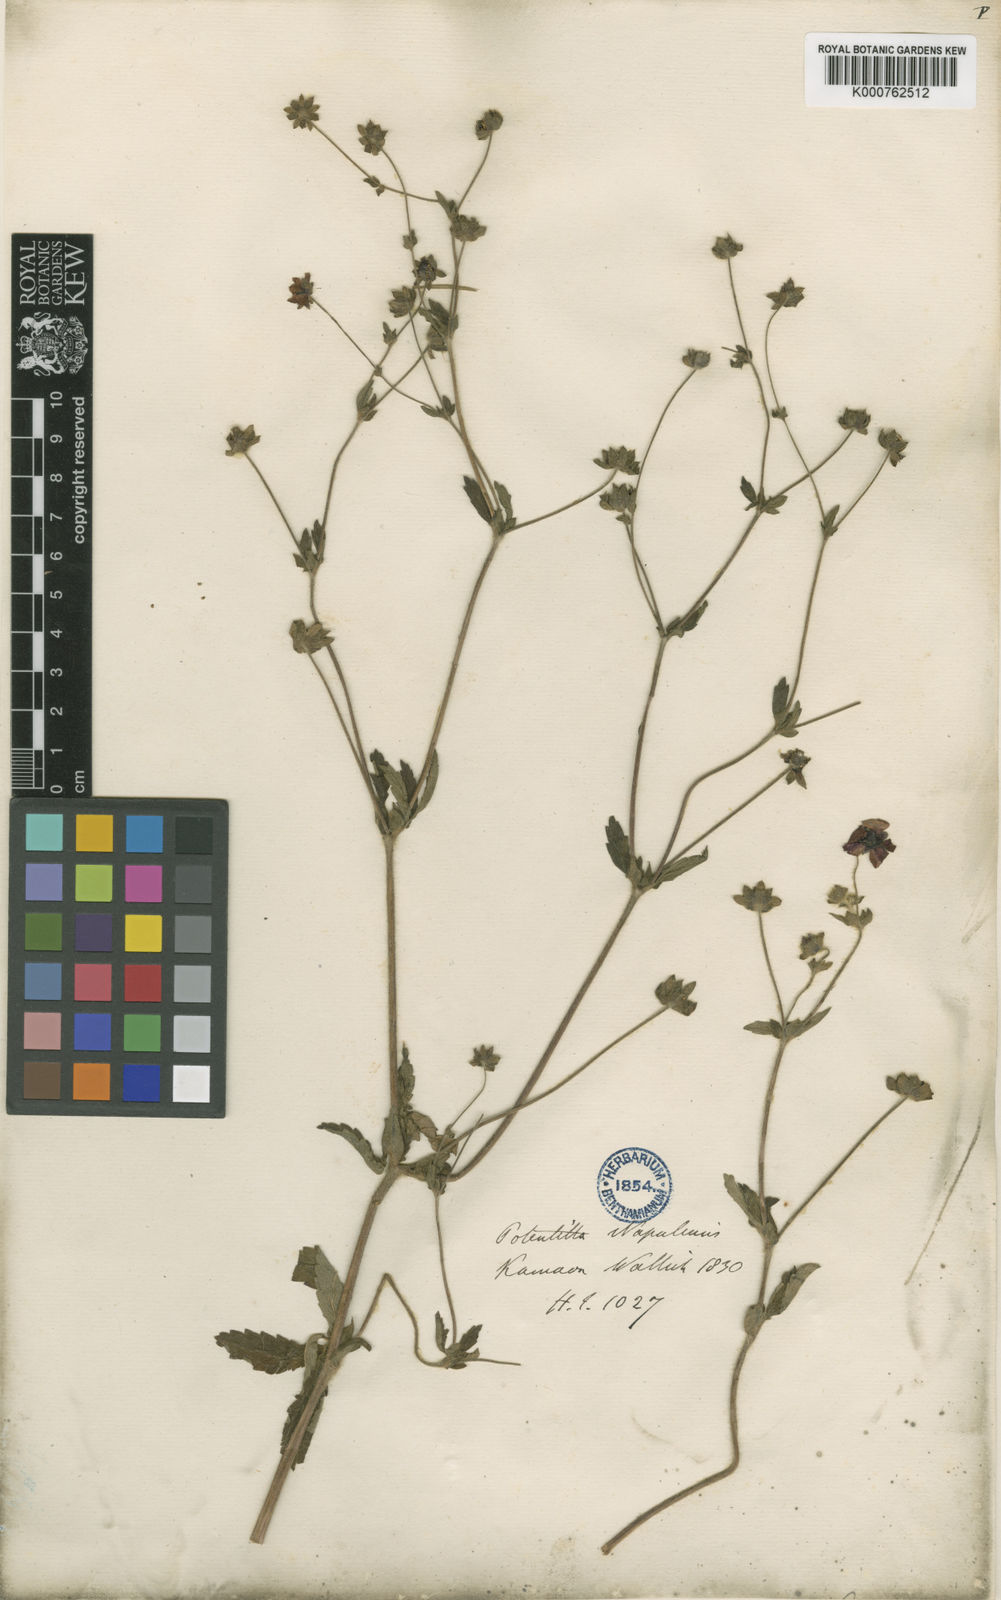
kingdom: Plantae
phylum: Tracheophyta
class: Magnoliopsida
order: Rosales
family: Rosaceae
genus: Potentilla
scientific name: Potentilla nepalensis
